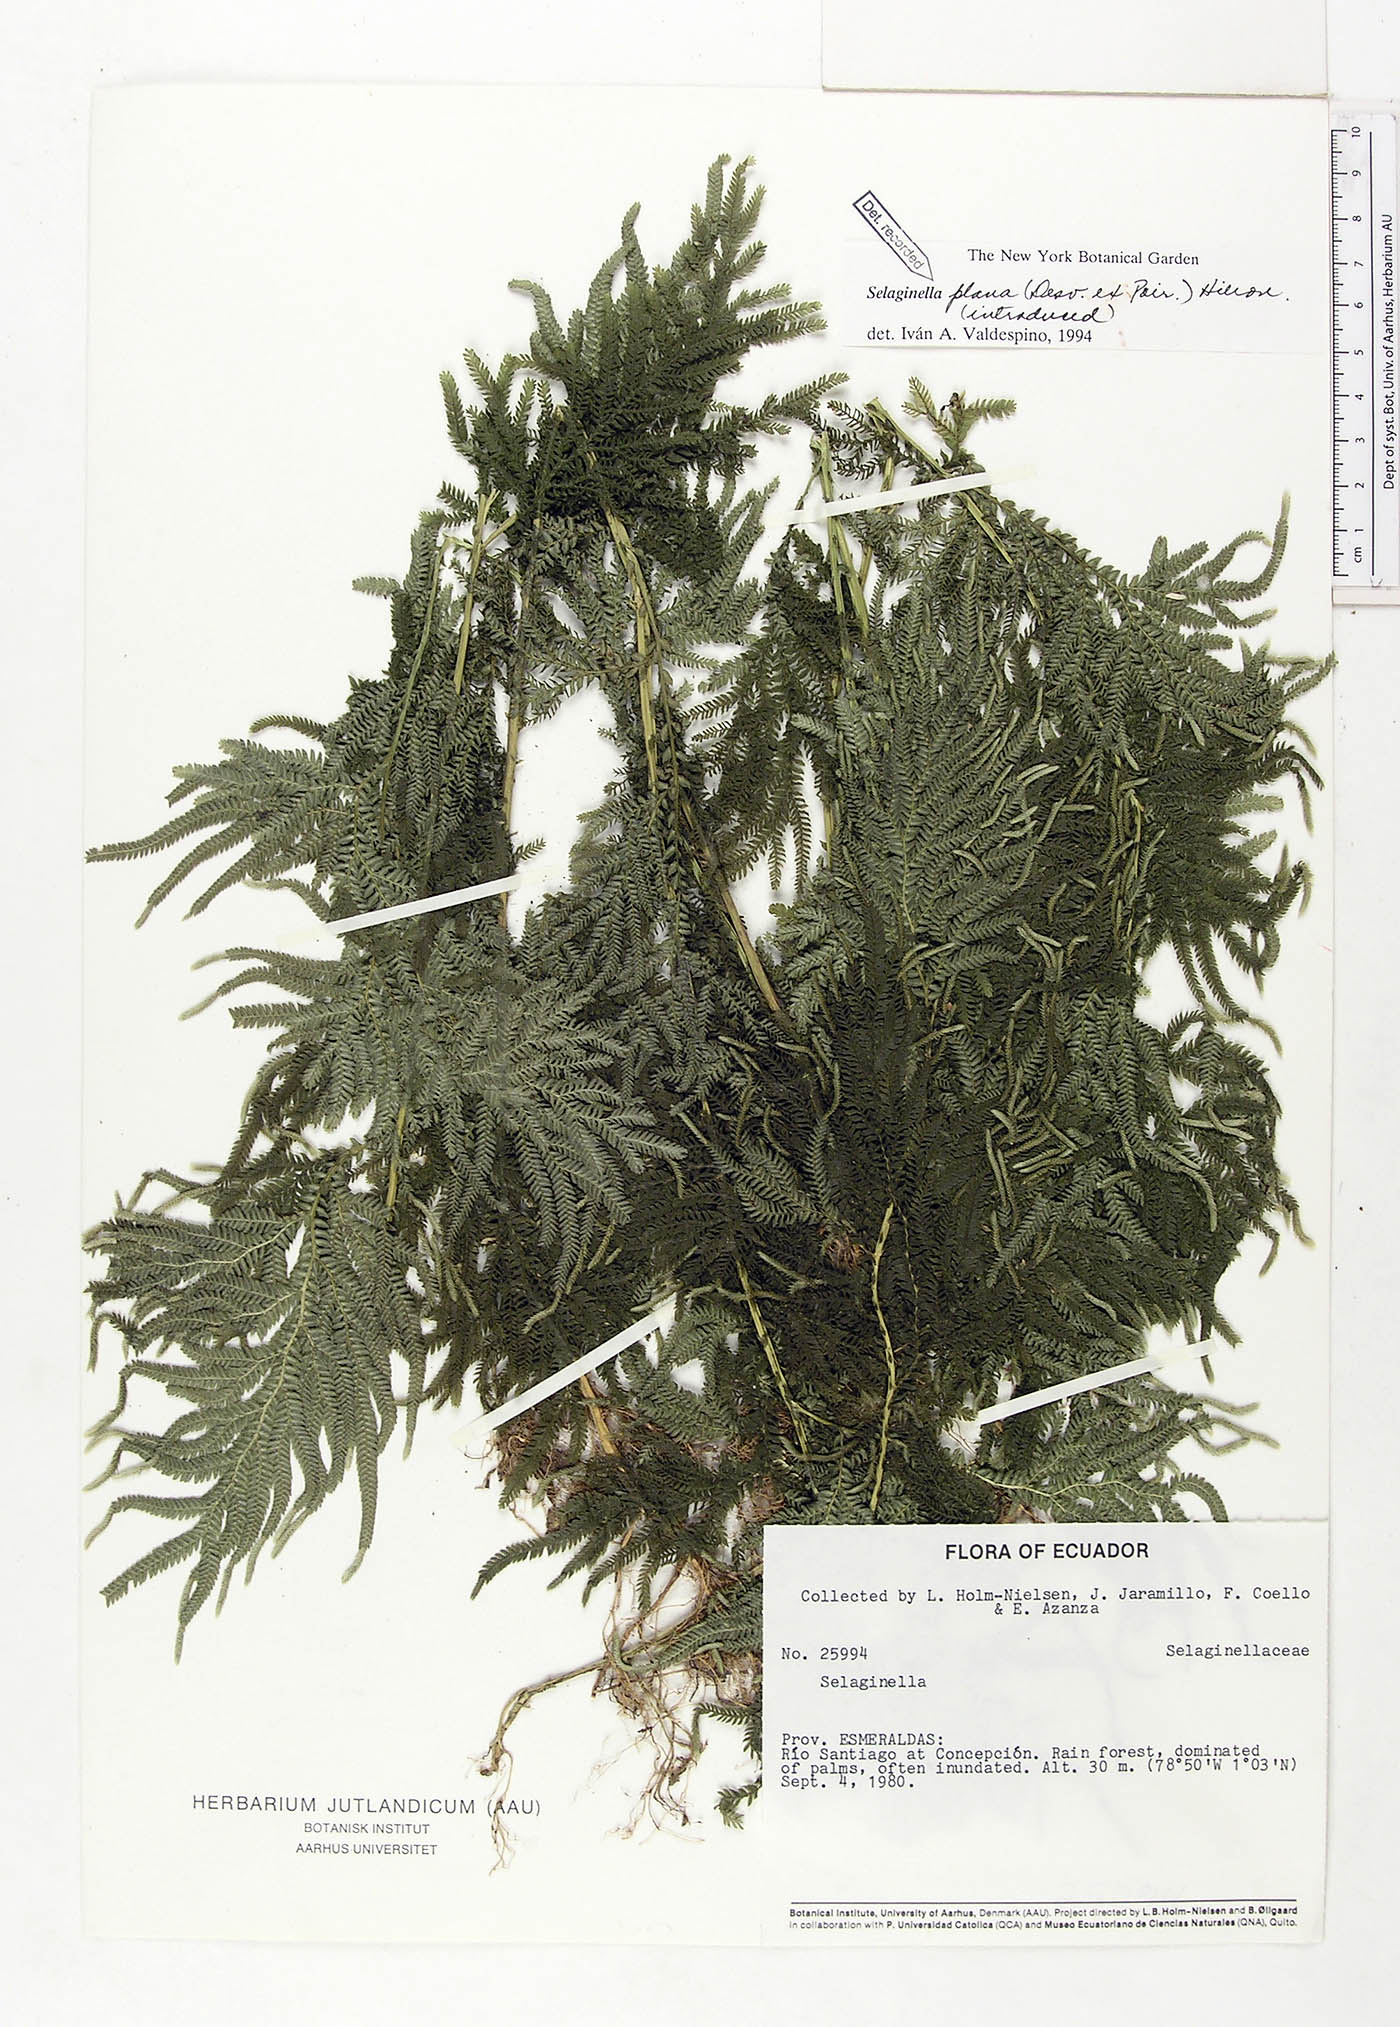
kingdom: Plantae
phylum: Tracheophyta
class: Lycopodiopsida
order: Selaginellales
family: Selaginellaceae
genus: Selaginella
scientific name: Selaginella plana
